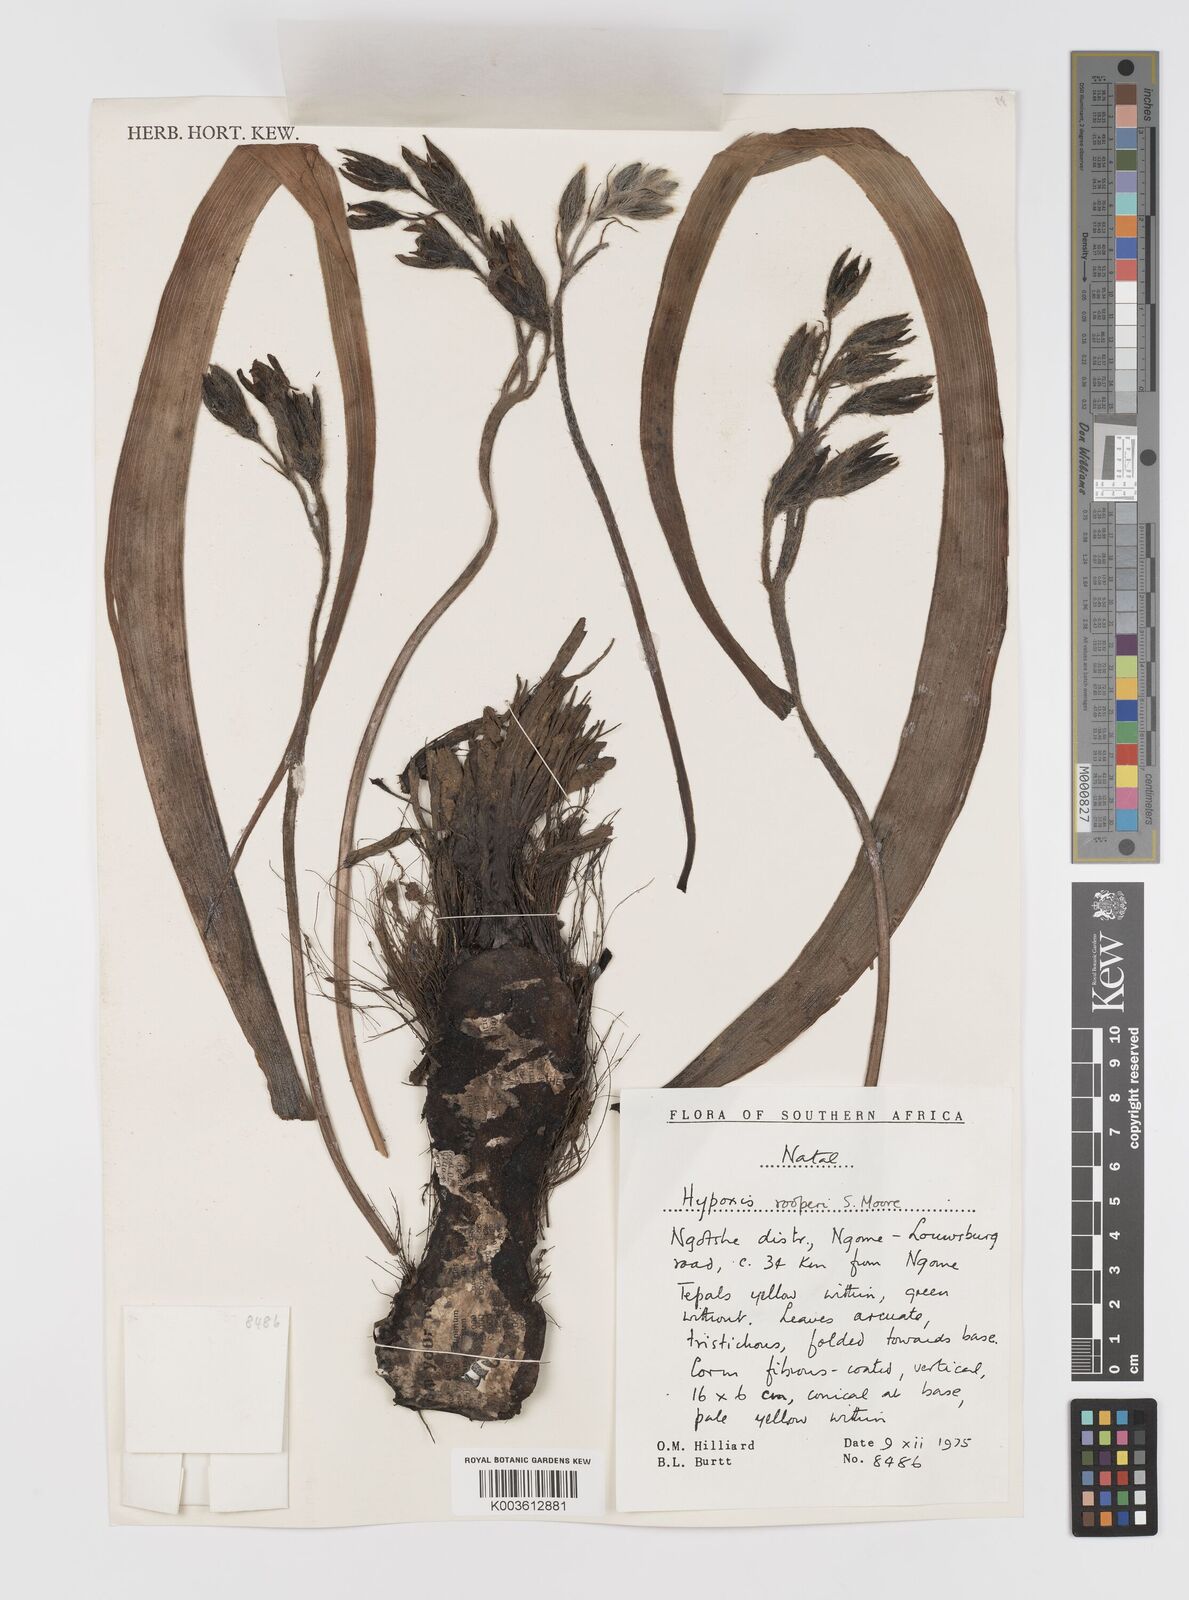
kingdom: Plantae
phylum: Tracheophyta
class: Liliopsida
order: Asparagales
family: Hypoxidaceae
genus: Hypoxis
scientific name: Hypoxis hemerocallidea
